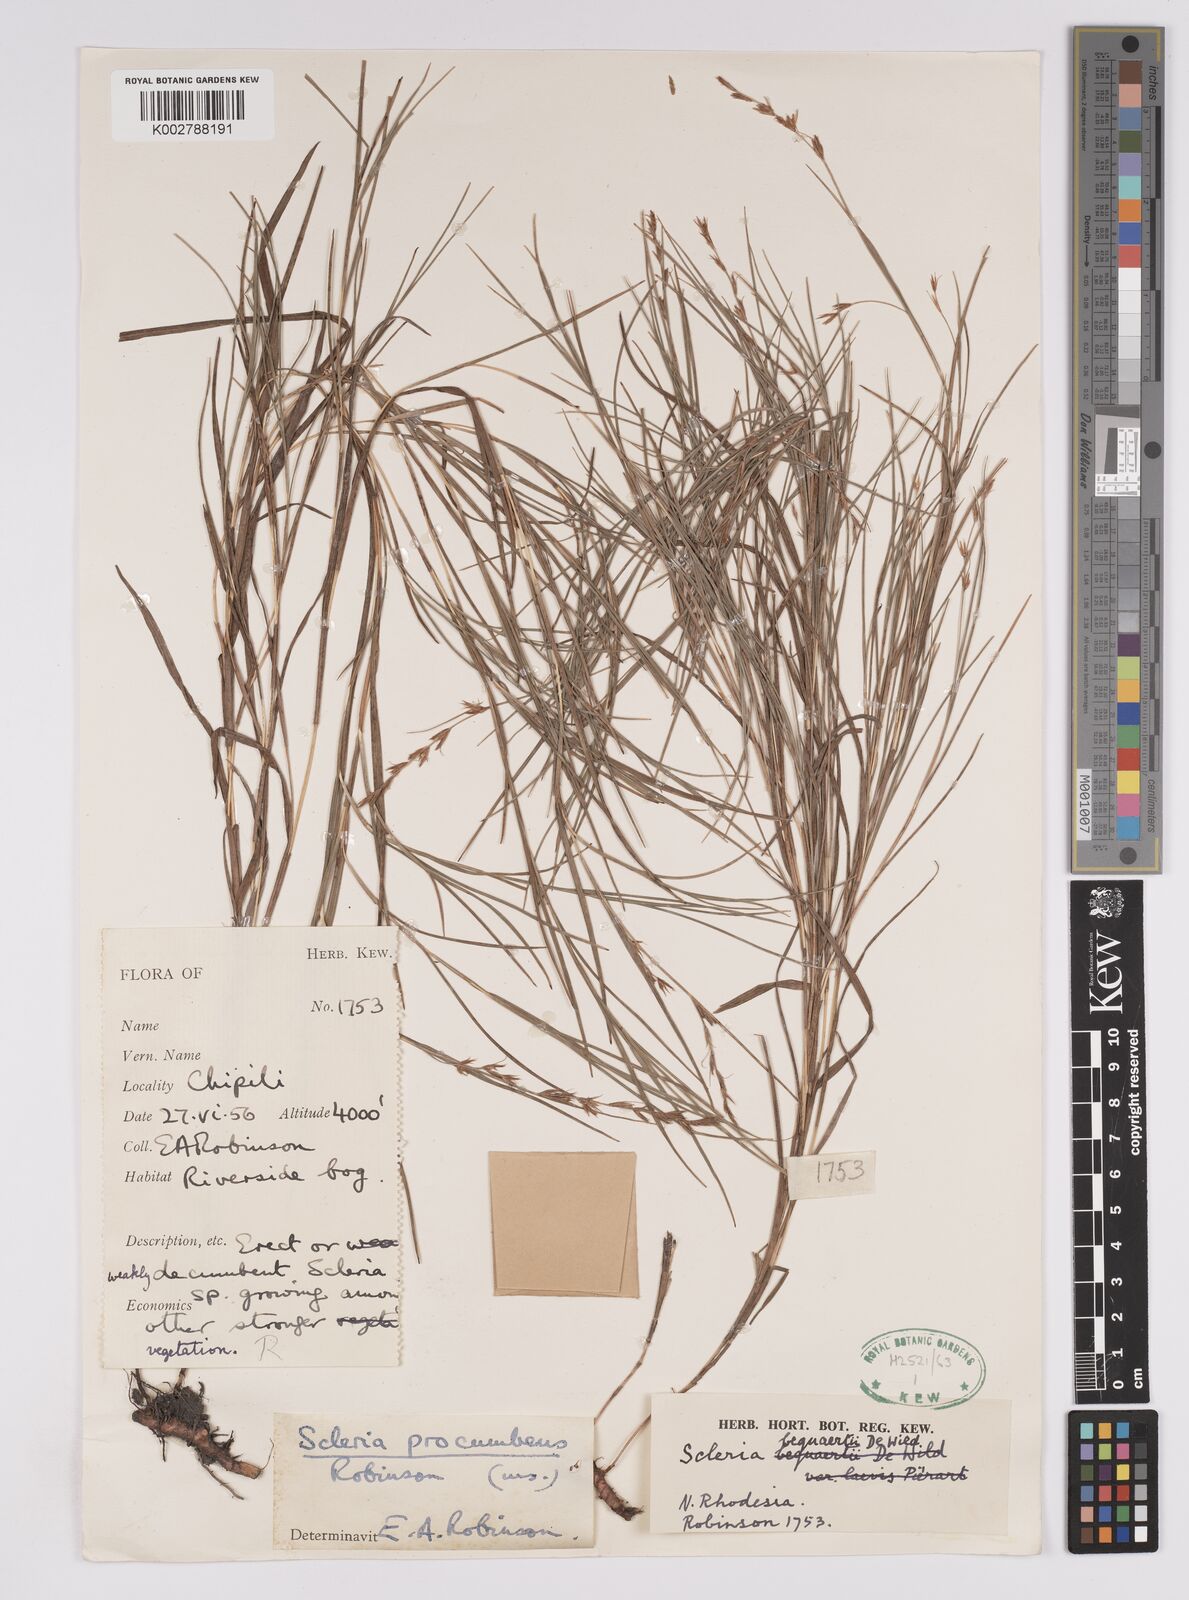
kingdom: Plantae
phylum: Tracheophyta
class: Liliopsida
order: Poales
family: Cyperaceae
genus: Scleria
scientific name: Scleria procumbens
